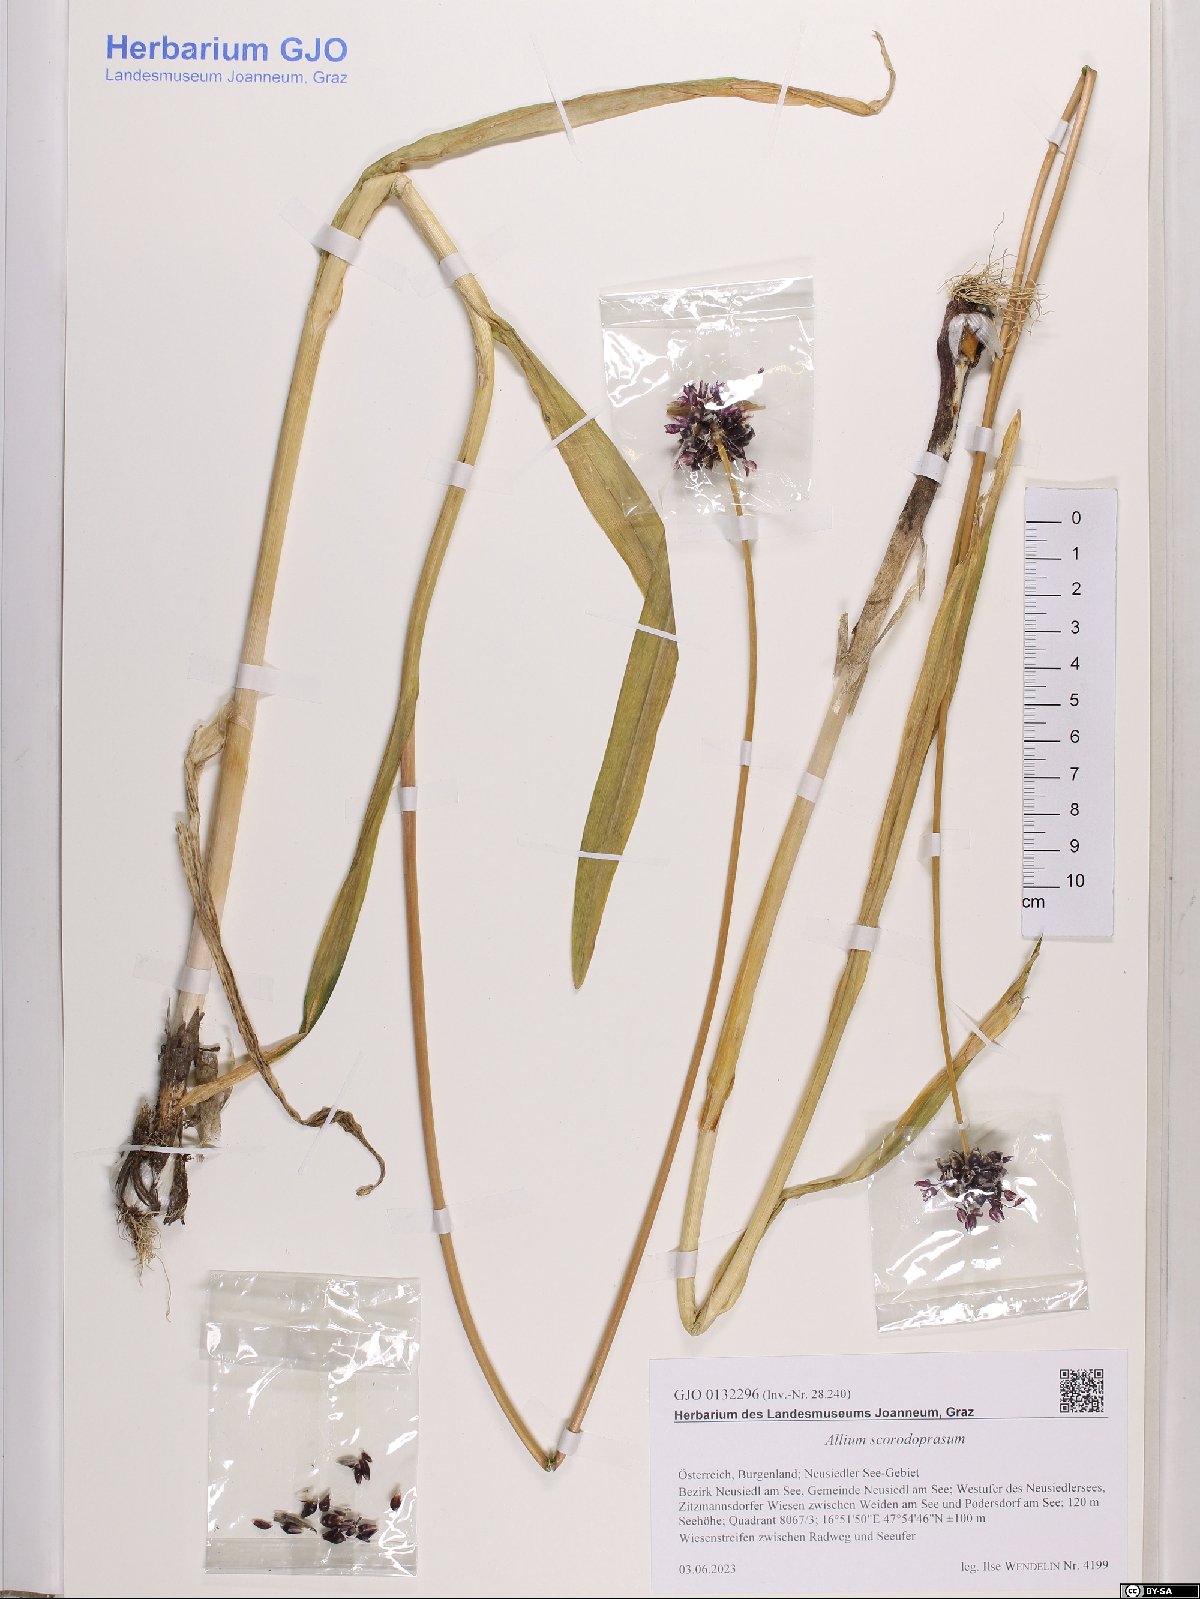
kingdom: Plantae
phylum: Tracheophyta
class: Liliopsida
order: Asparagales
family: Amaryllidaceae
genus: Allium
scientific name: Allium scorodoprasum
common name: Sand leek
